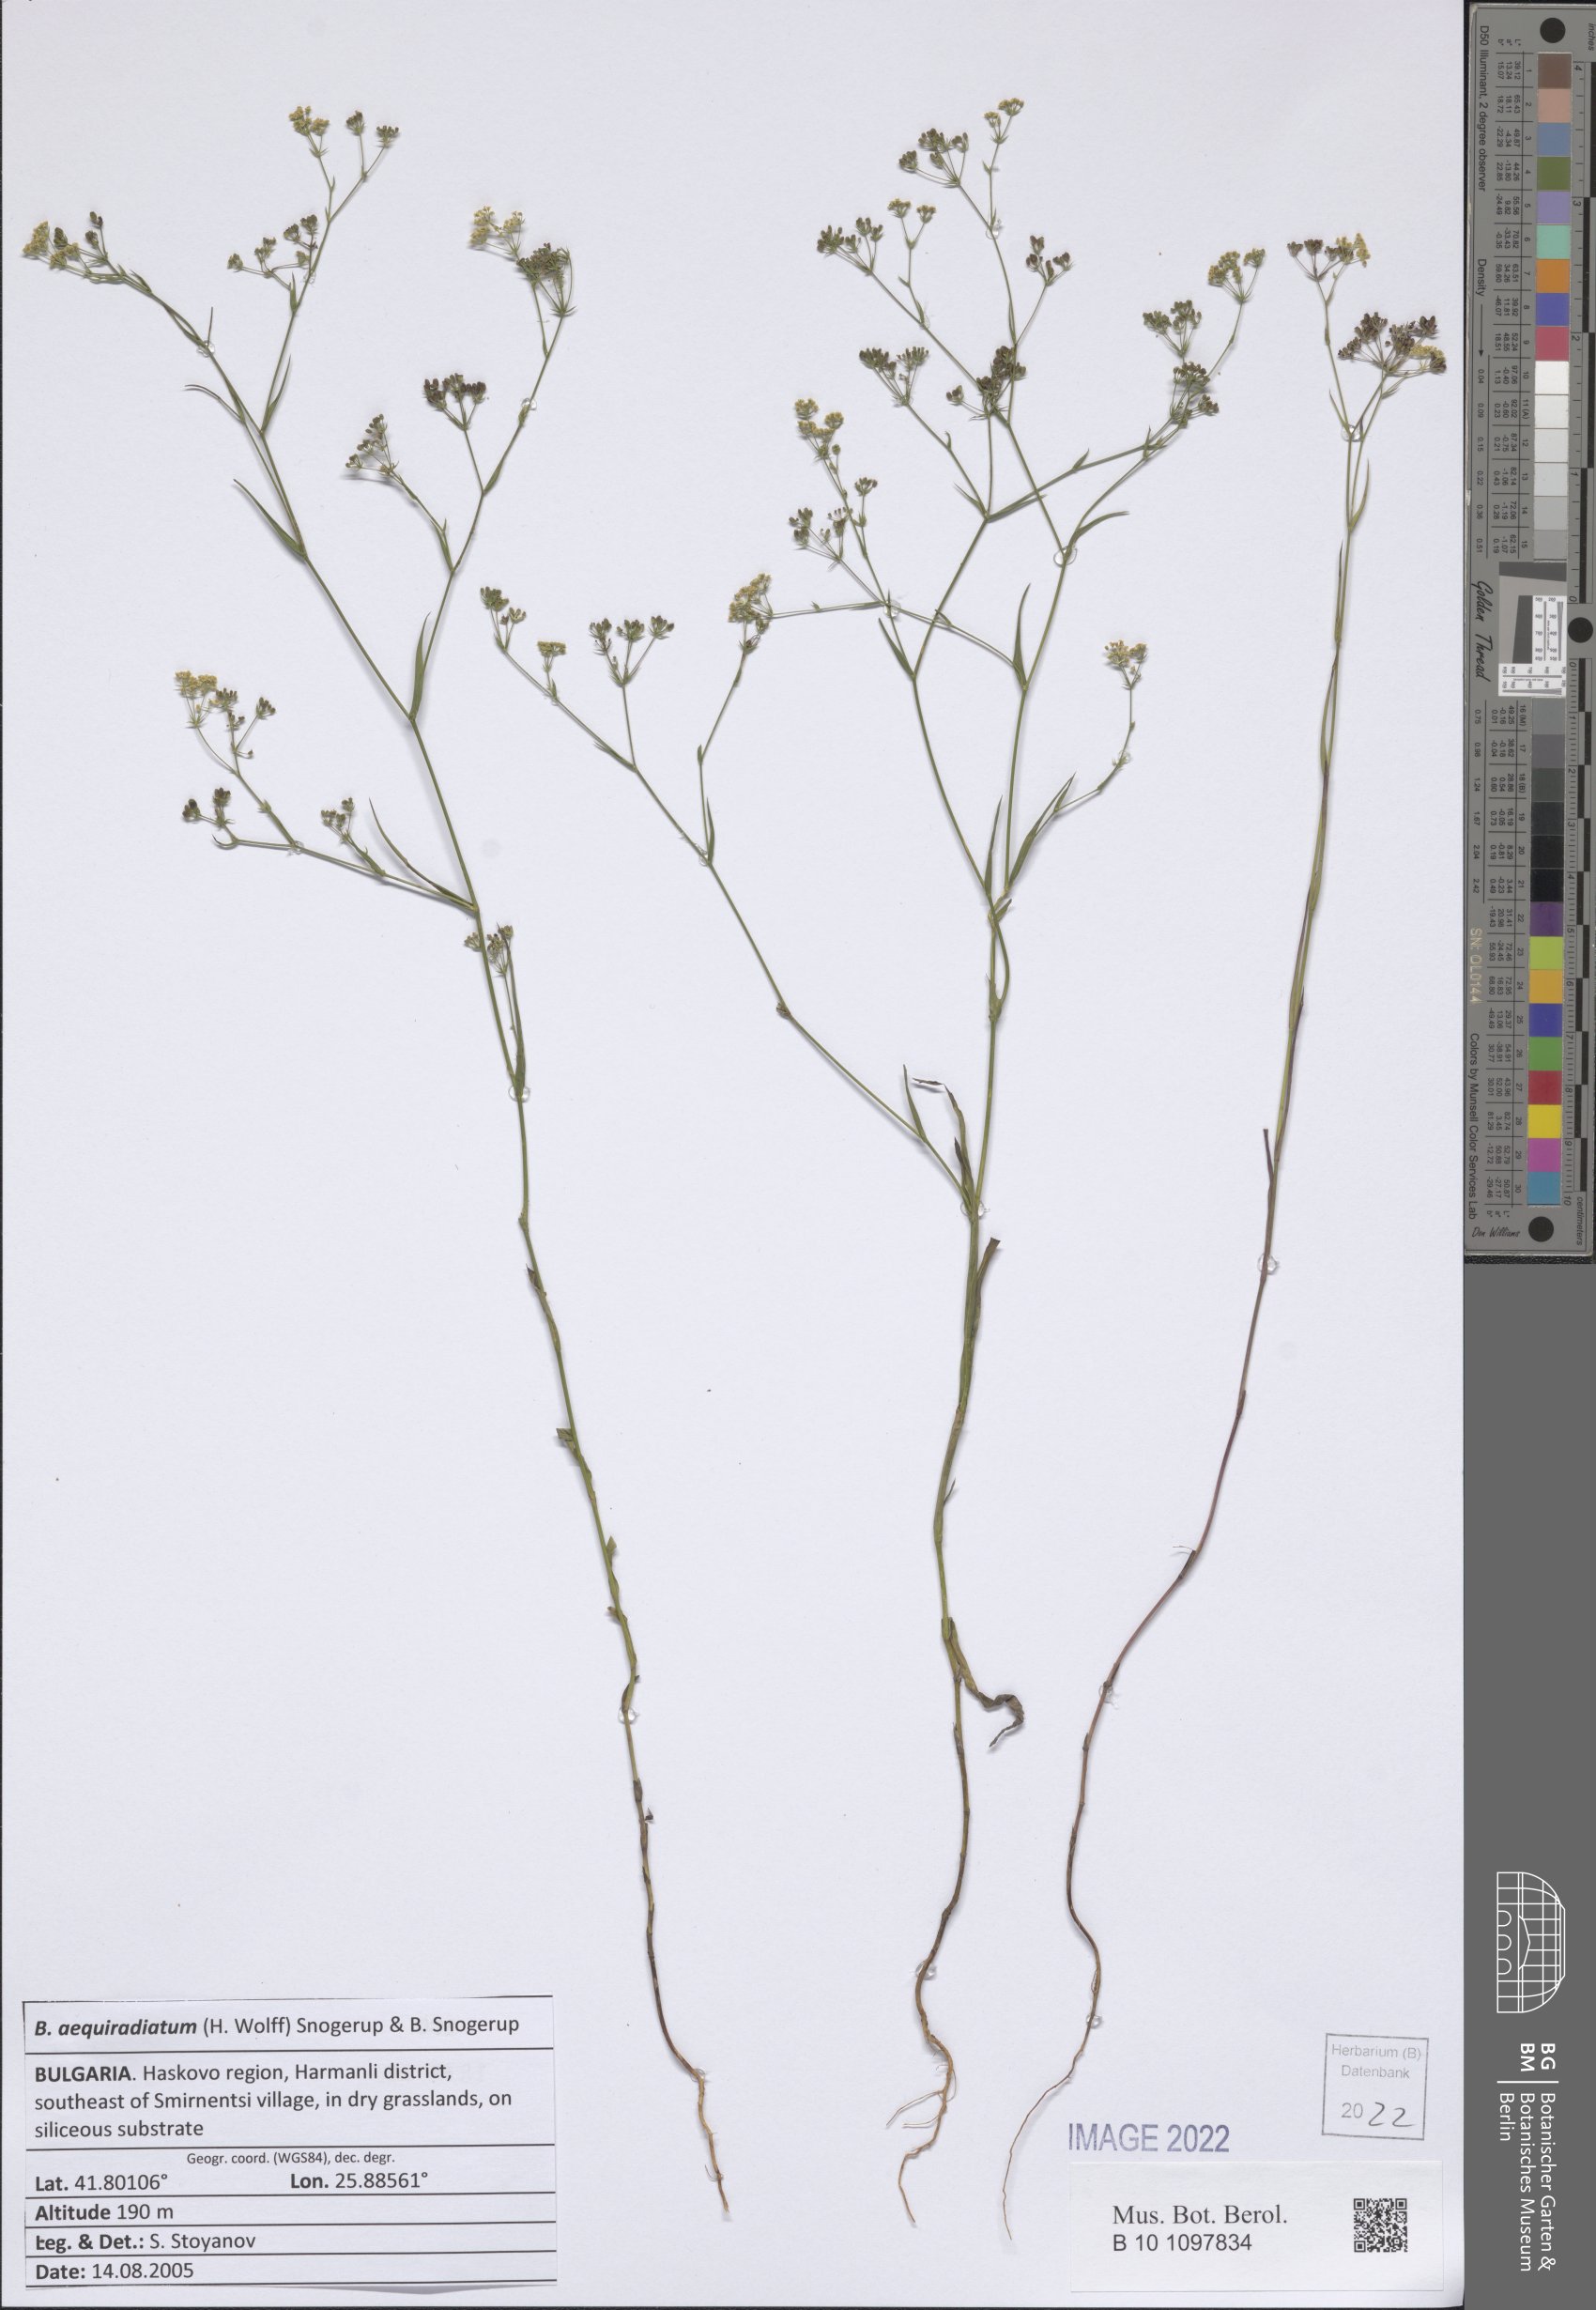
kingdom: Plantae
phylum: Tracheophyta
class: Magnoliopsida
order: Apiales
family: Apiaceae
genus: Bupleurum
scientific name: Bupleurum aequiradiatum
